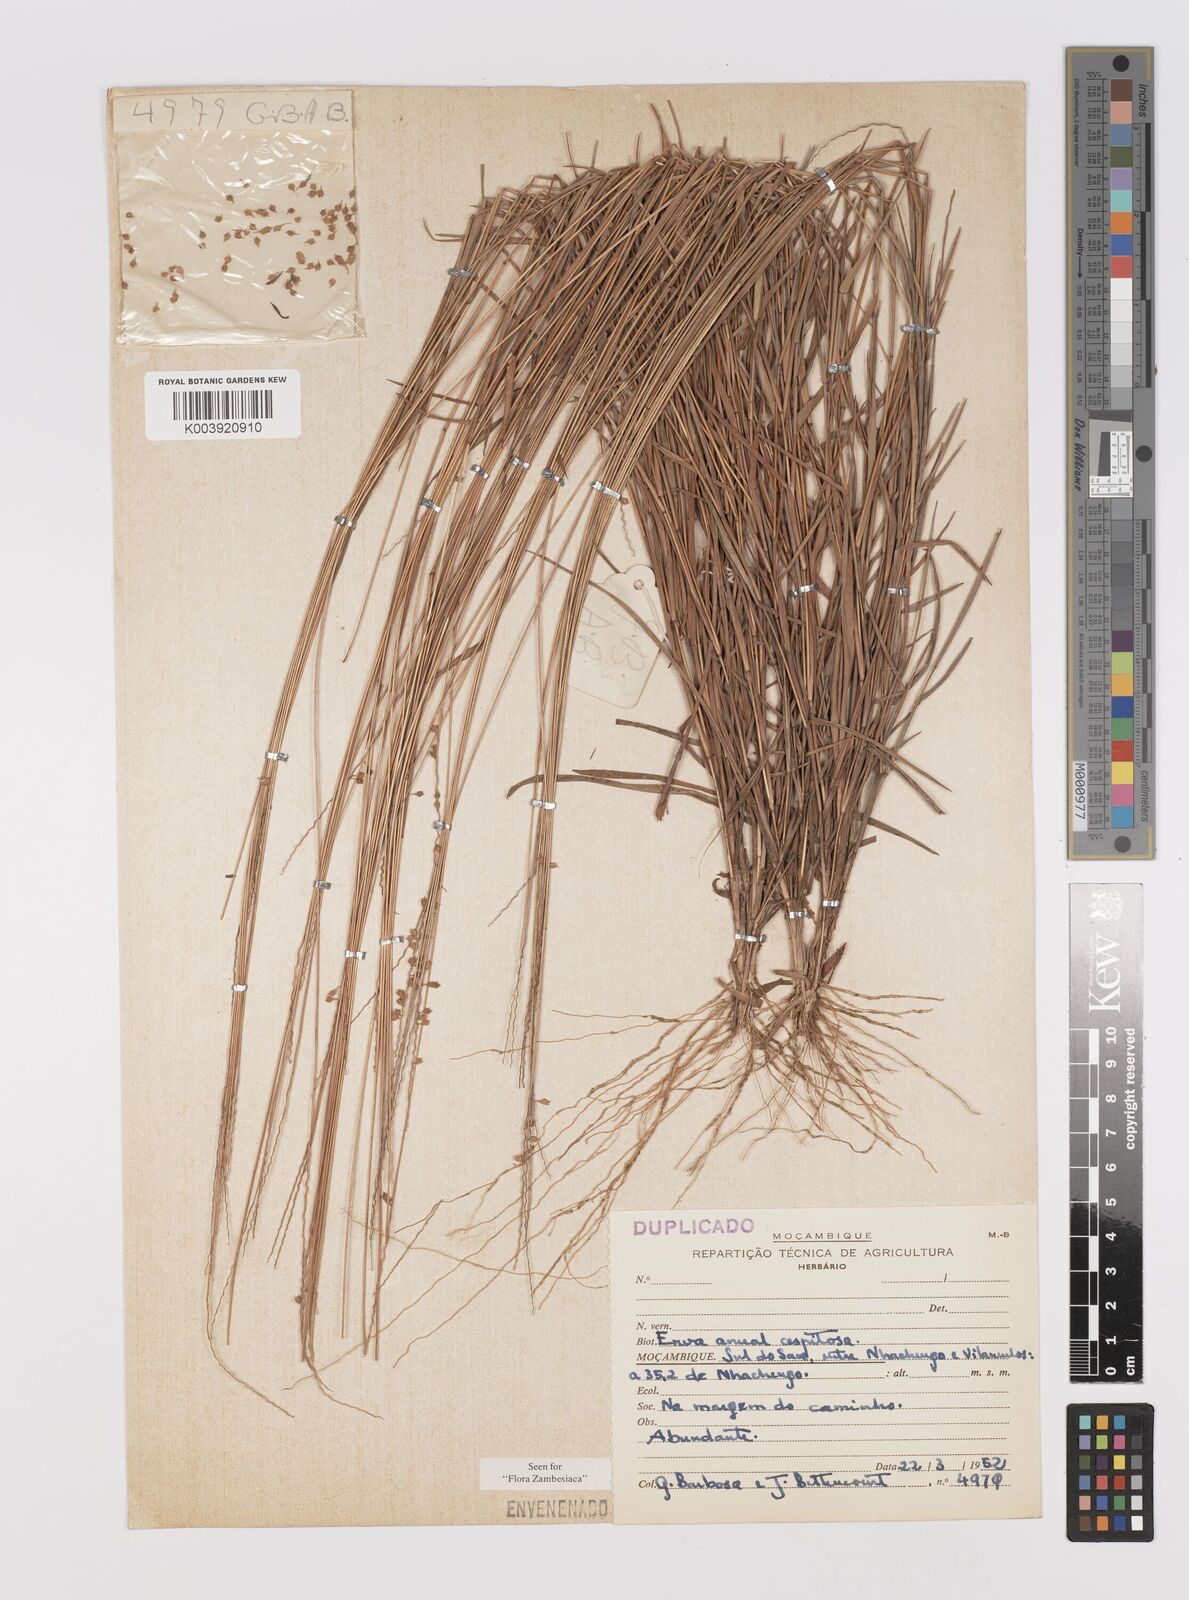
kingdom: Plantae
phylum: Tracheophyta
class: Liliopsida
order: Poales
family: Poaceae
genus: Dignathia
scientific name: Dignathia gracilis
